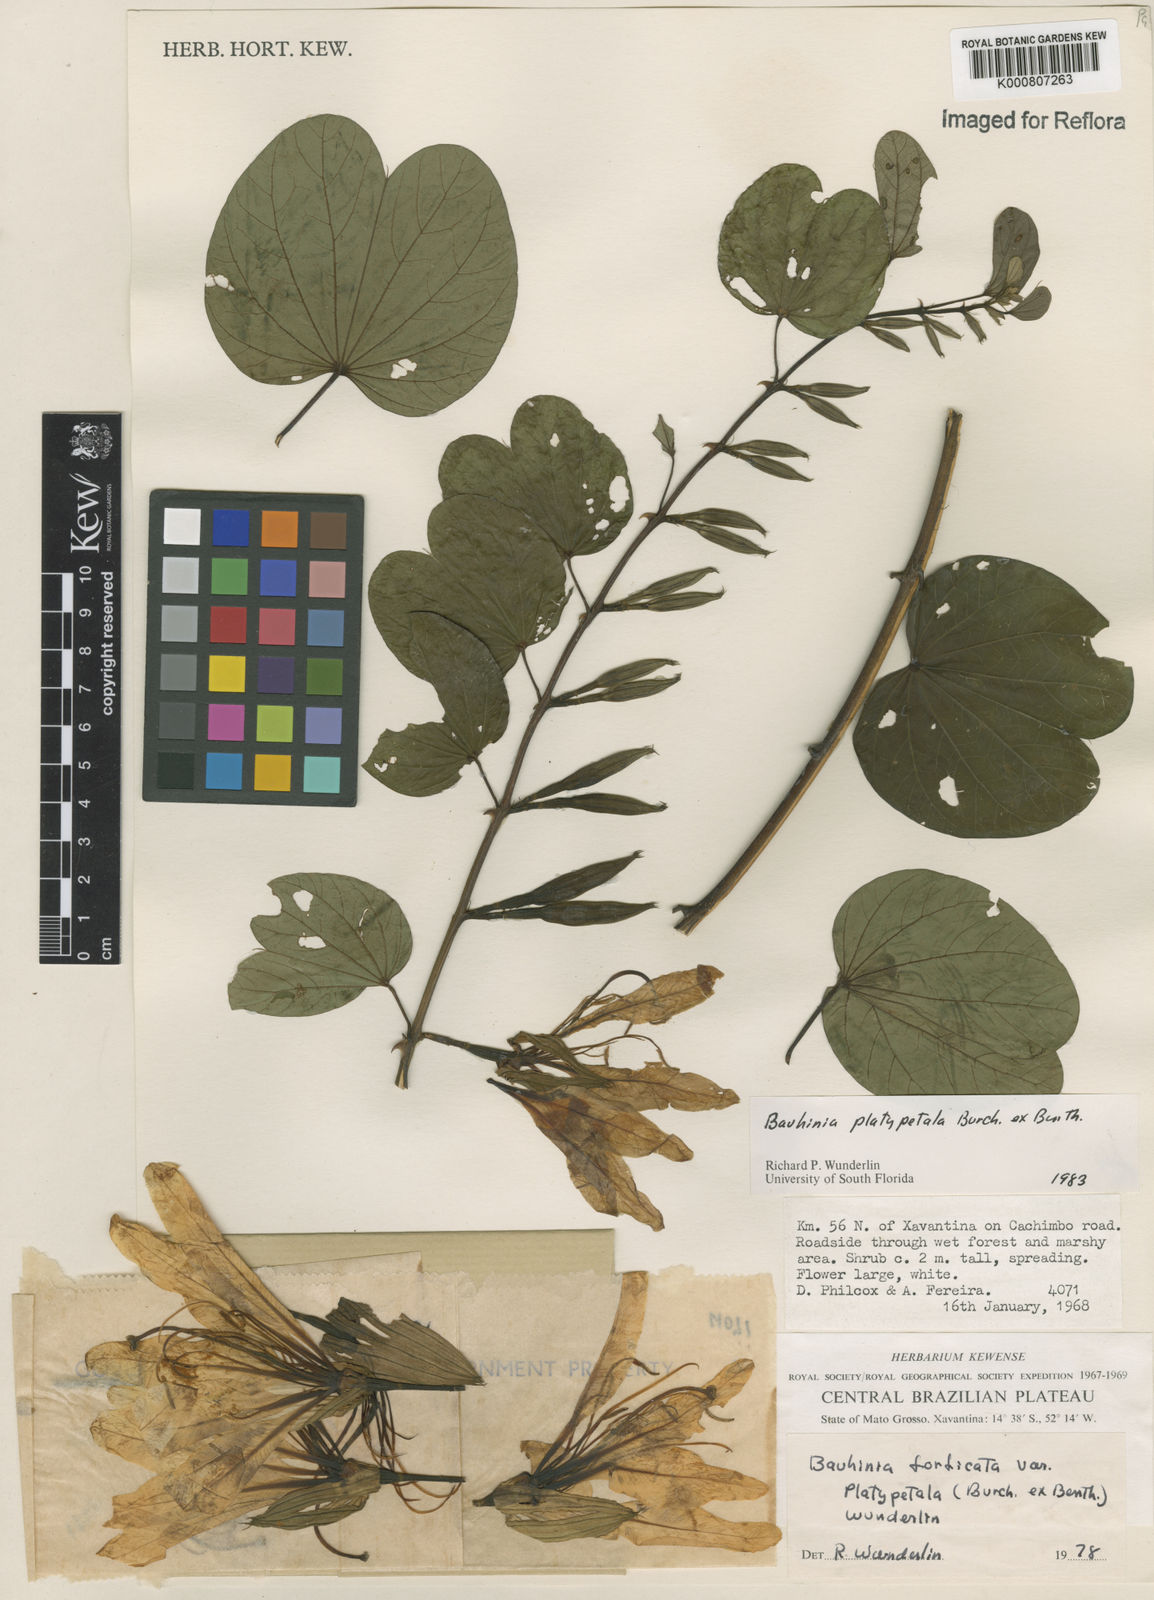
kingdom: Plantae
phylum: Tracheophyta
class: Magnoliopsida
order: Fabales
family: Fabaceae
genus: Bauhinia
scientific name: Bauhinia platypetala
